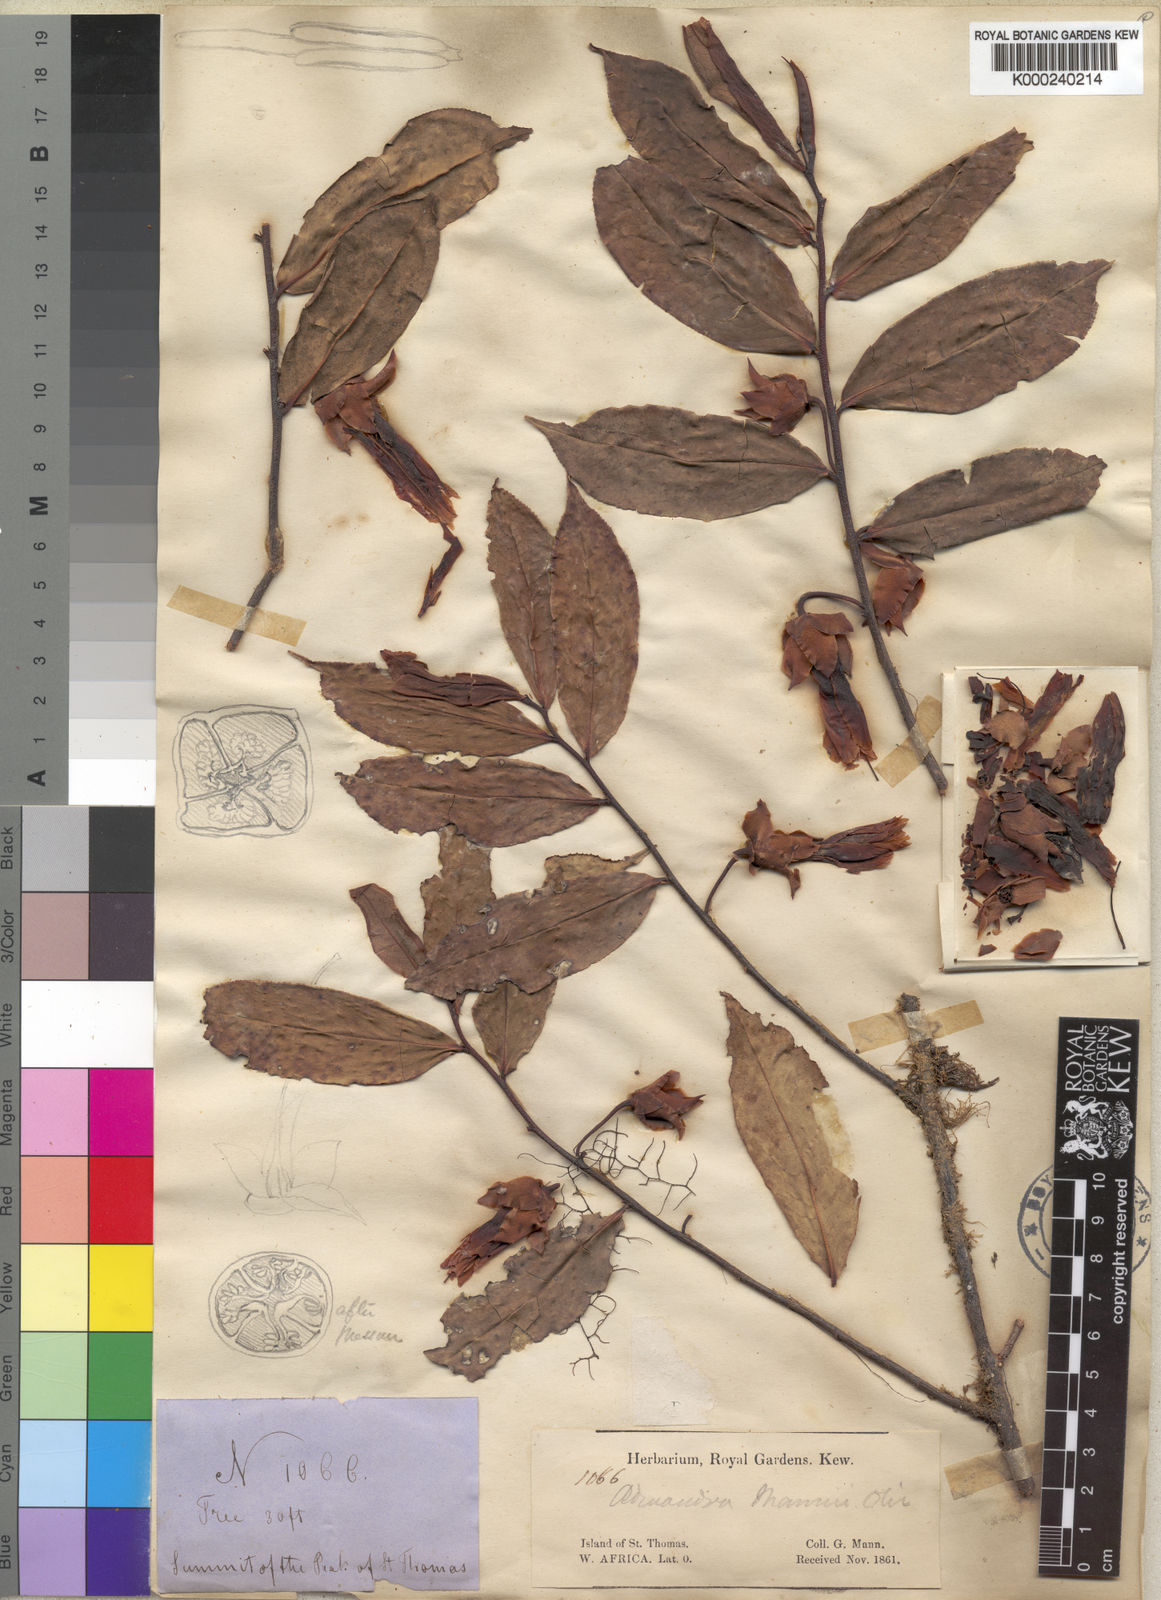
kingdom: Plantae
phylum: Tracheophyta
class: Magnoliopsida
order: Ericales
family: Pentaphylacaceae
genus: Balthasaria
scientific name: Balthasaria mannii
